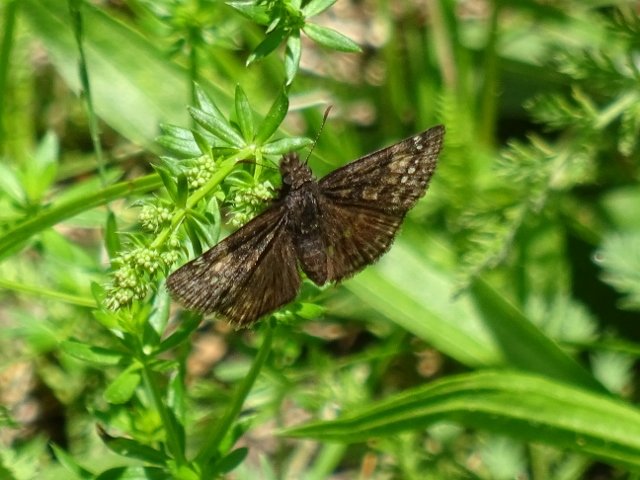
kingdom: Animalia
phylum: Arthropoda
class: Insecta
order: Lepidoptera
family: Hesperiidae
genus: Gesta
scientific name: Gesta
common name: Juvenal's Duskywing
